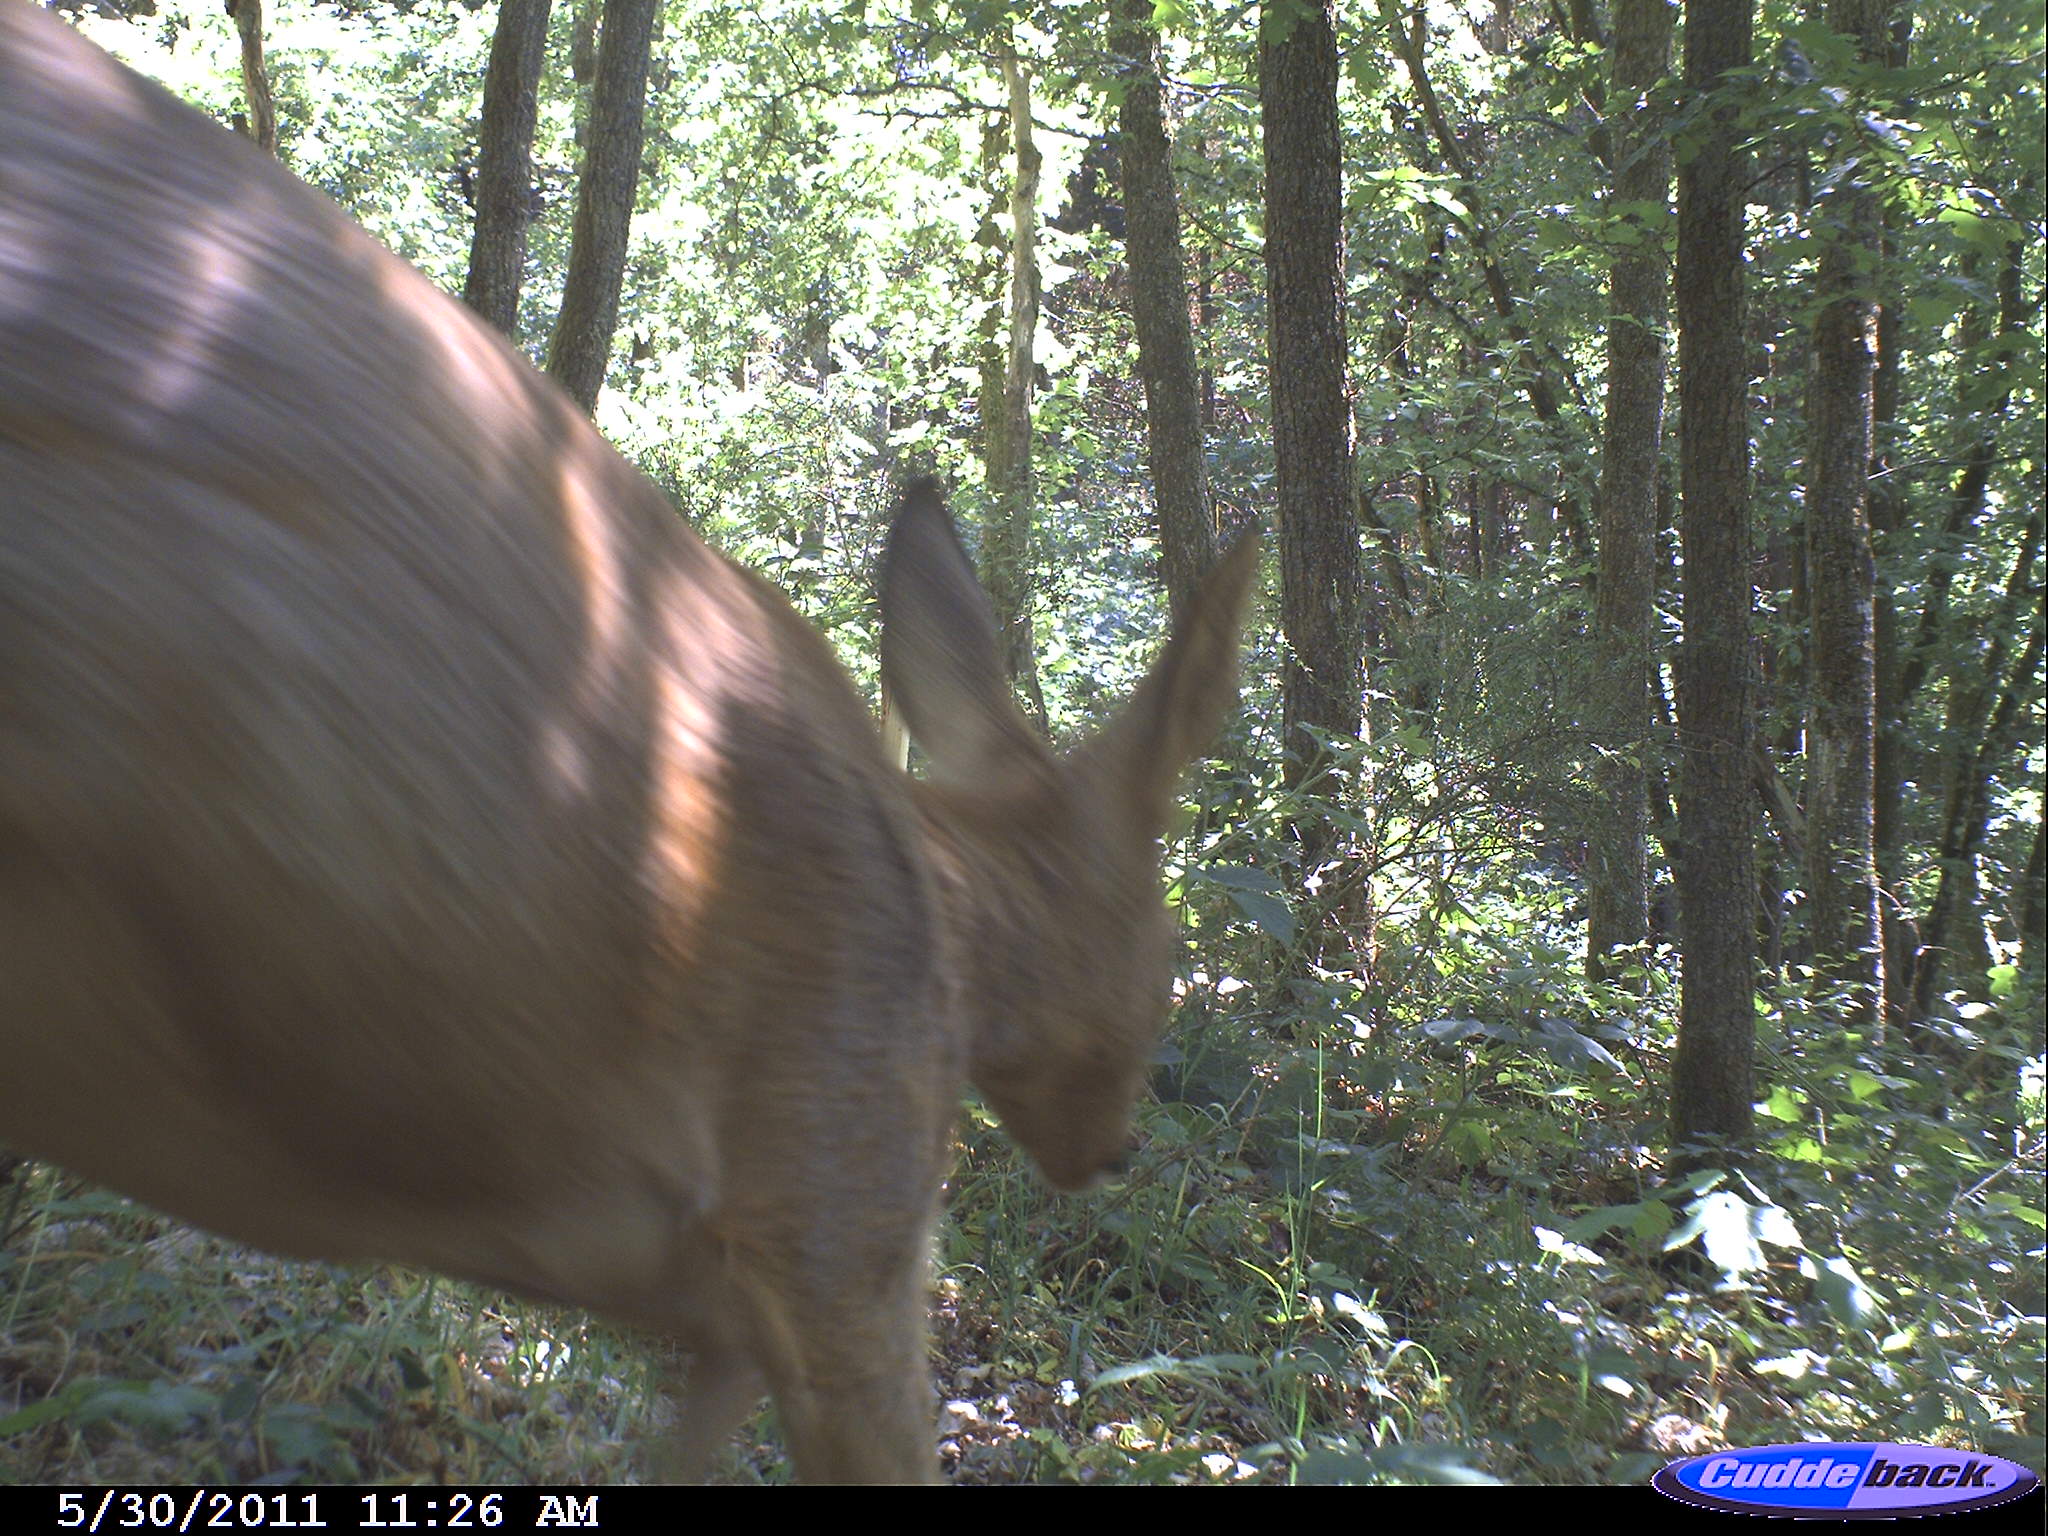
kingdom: Animalia
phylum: Chordata
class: Mammalia
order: Artiodactyla
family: Cervidae
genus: Capreolus
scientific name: Capreolus capreolus
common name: Western roe deer
